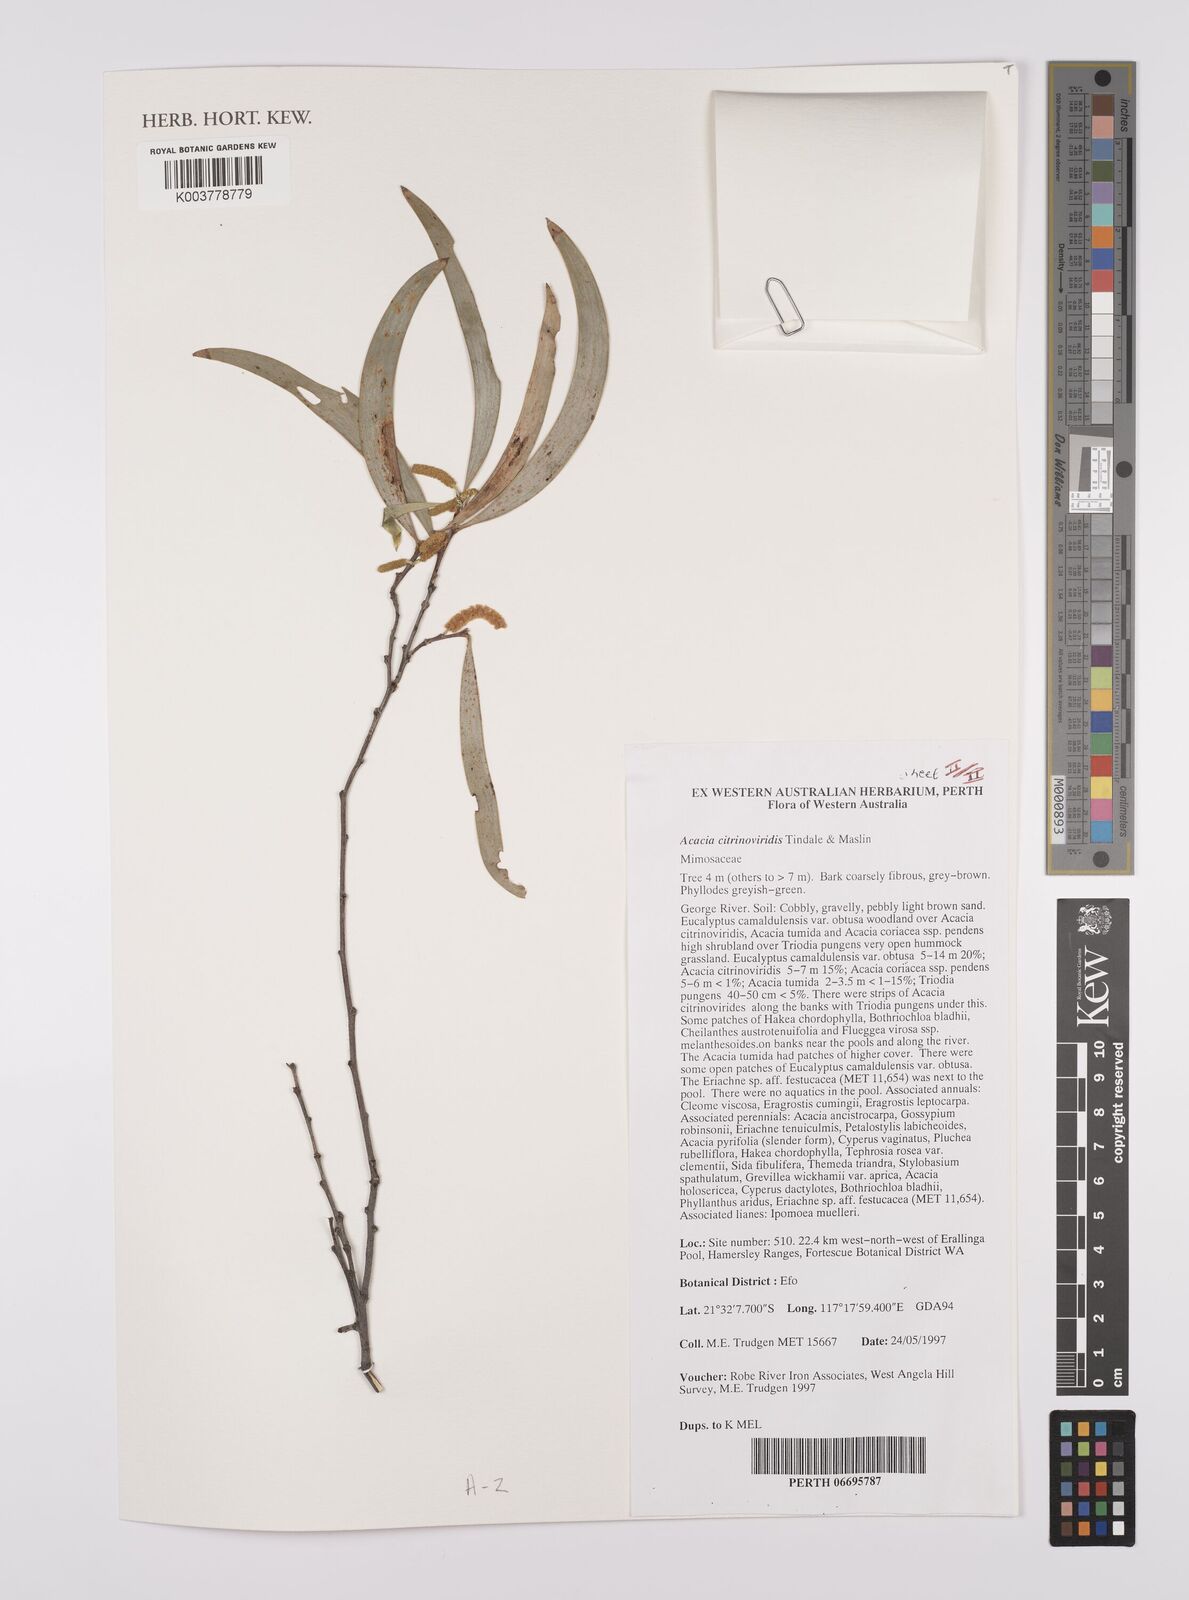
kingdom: Plantae
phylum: Tracheophyta
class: Magnoliopsida
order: Fabales
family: Fabaceae
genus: Acacia
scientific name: Acacia citrinoviridis
